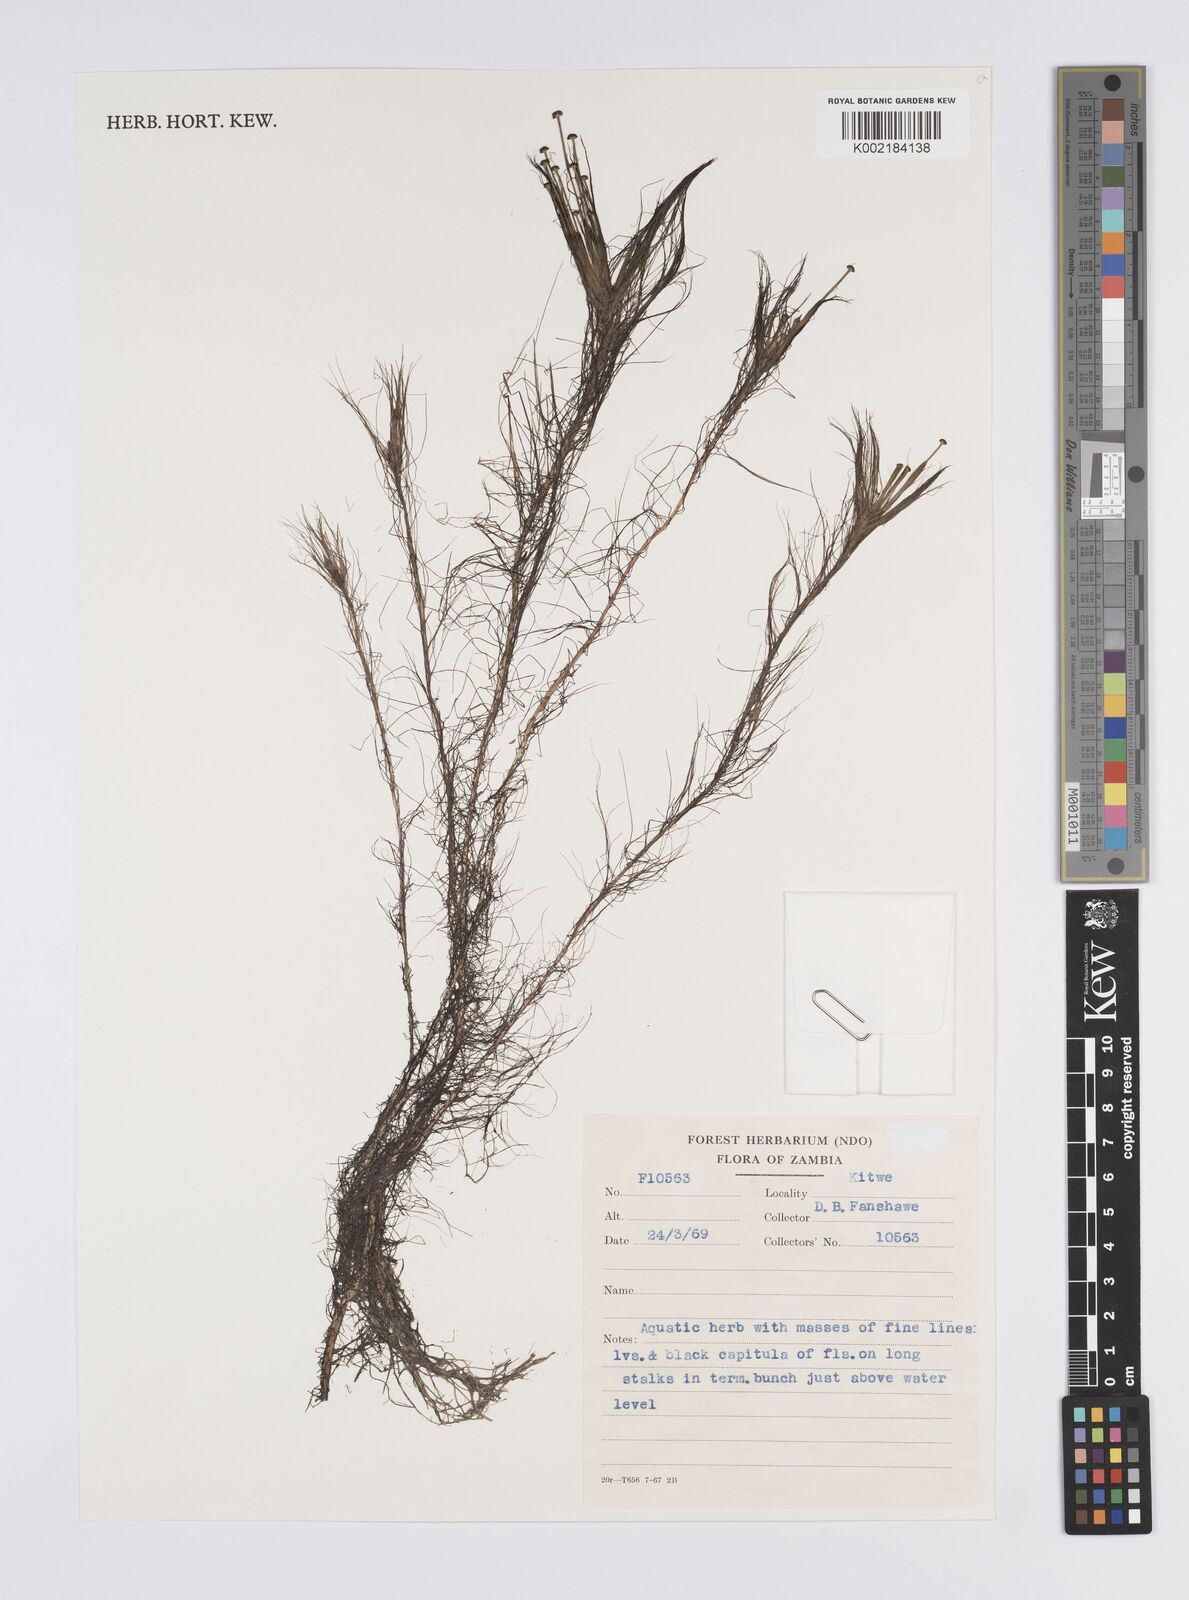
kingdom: Plantae
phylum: Tracheophyta
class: Liliopsida
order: Poales
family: Eriocaulaceae
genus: Eriocaulon
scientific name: Eriocaulon setaceum
